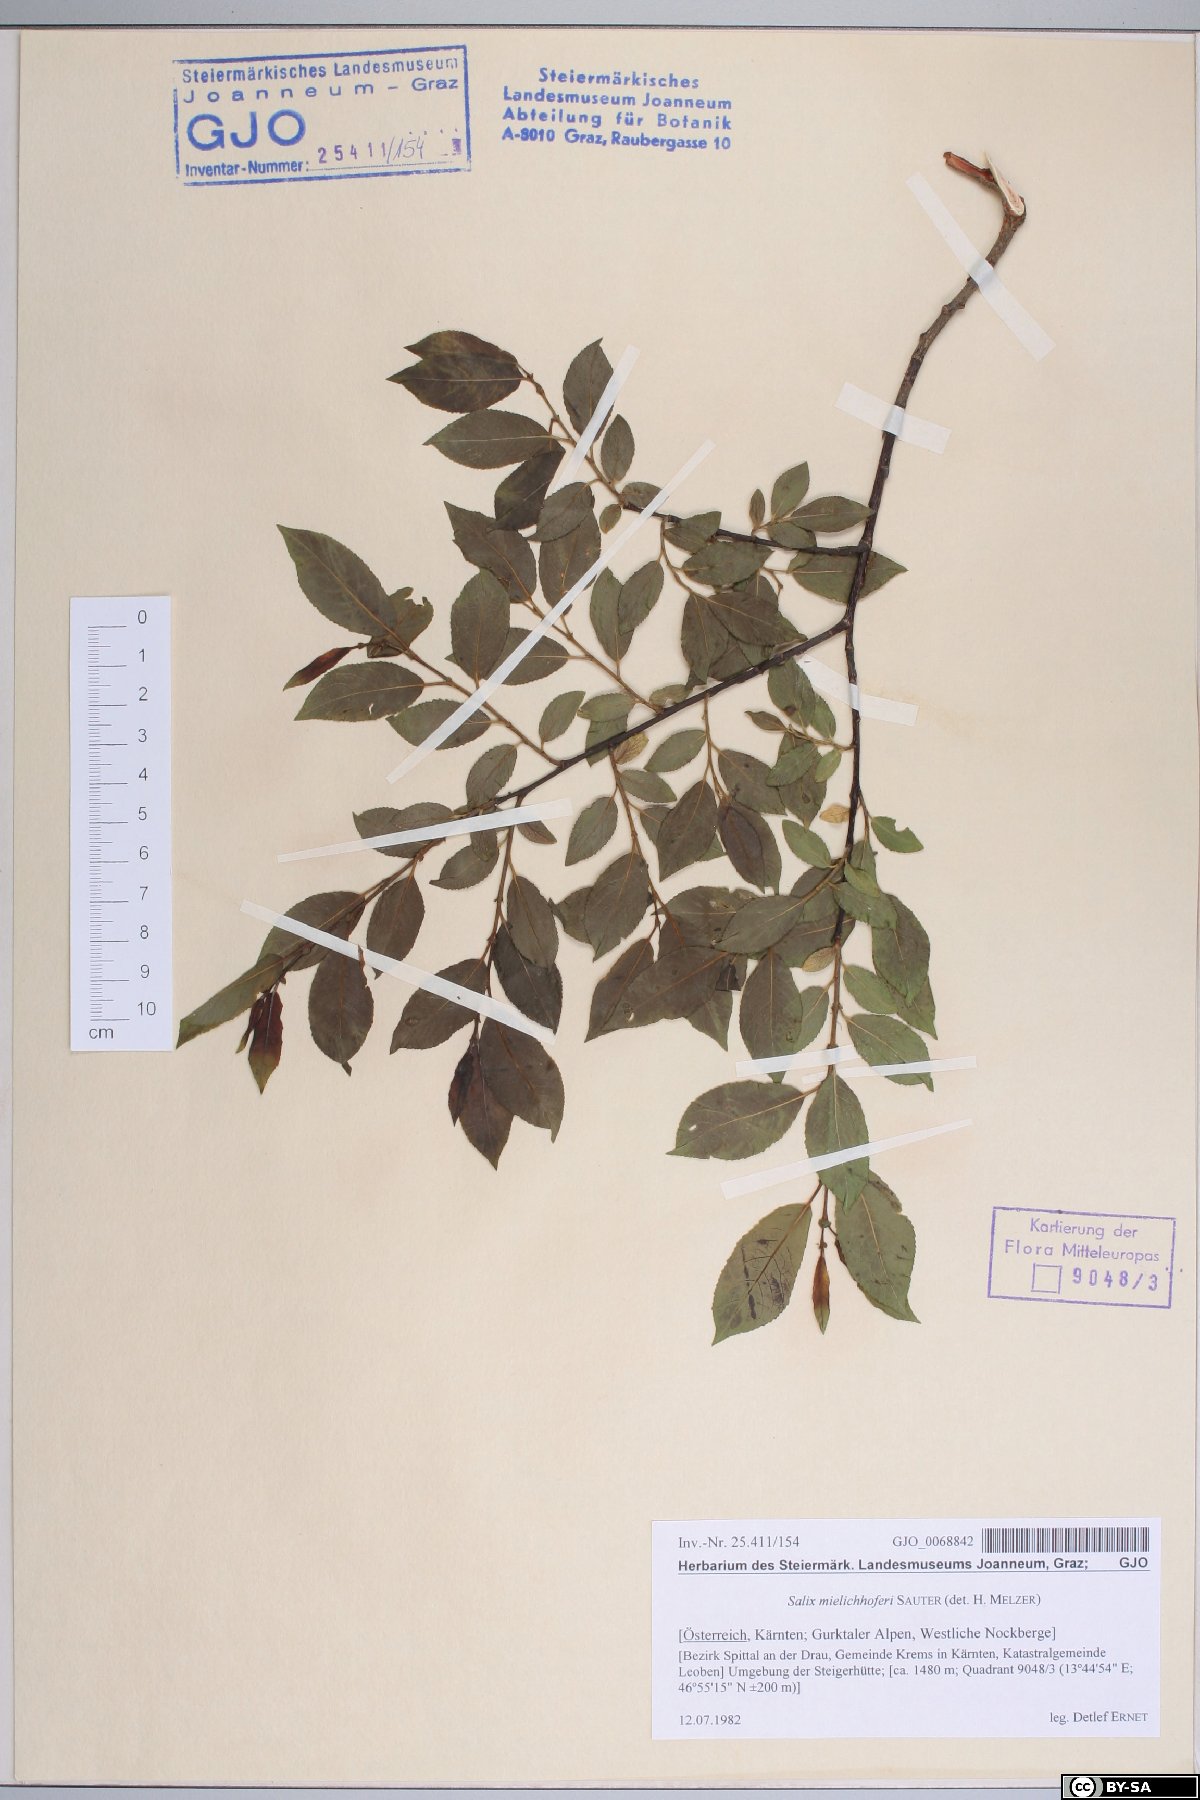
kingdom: Plantae
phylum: Tracheophyta
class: Magnoliopsida
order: Malpighiales
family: Salicaceae
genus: Salix
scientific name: Salix mielichhoferi
